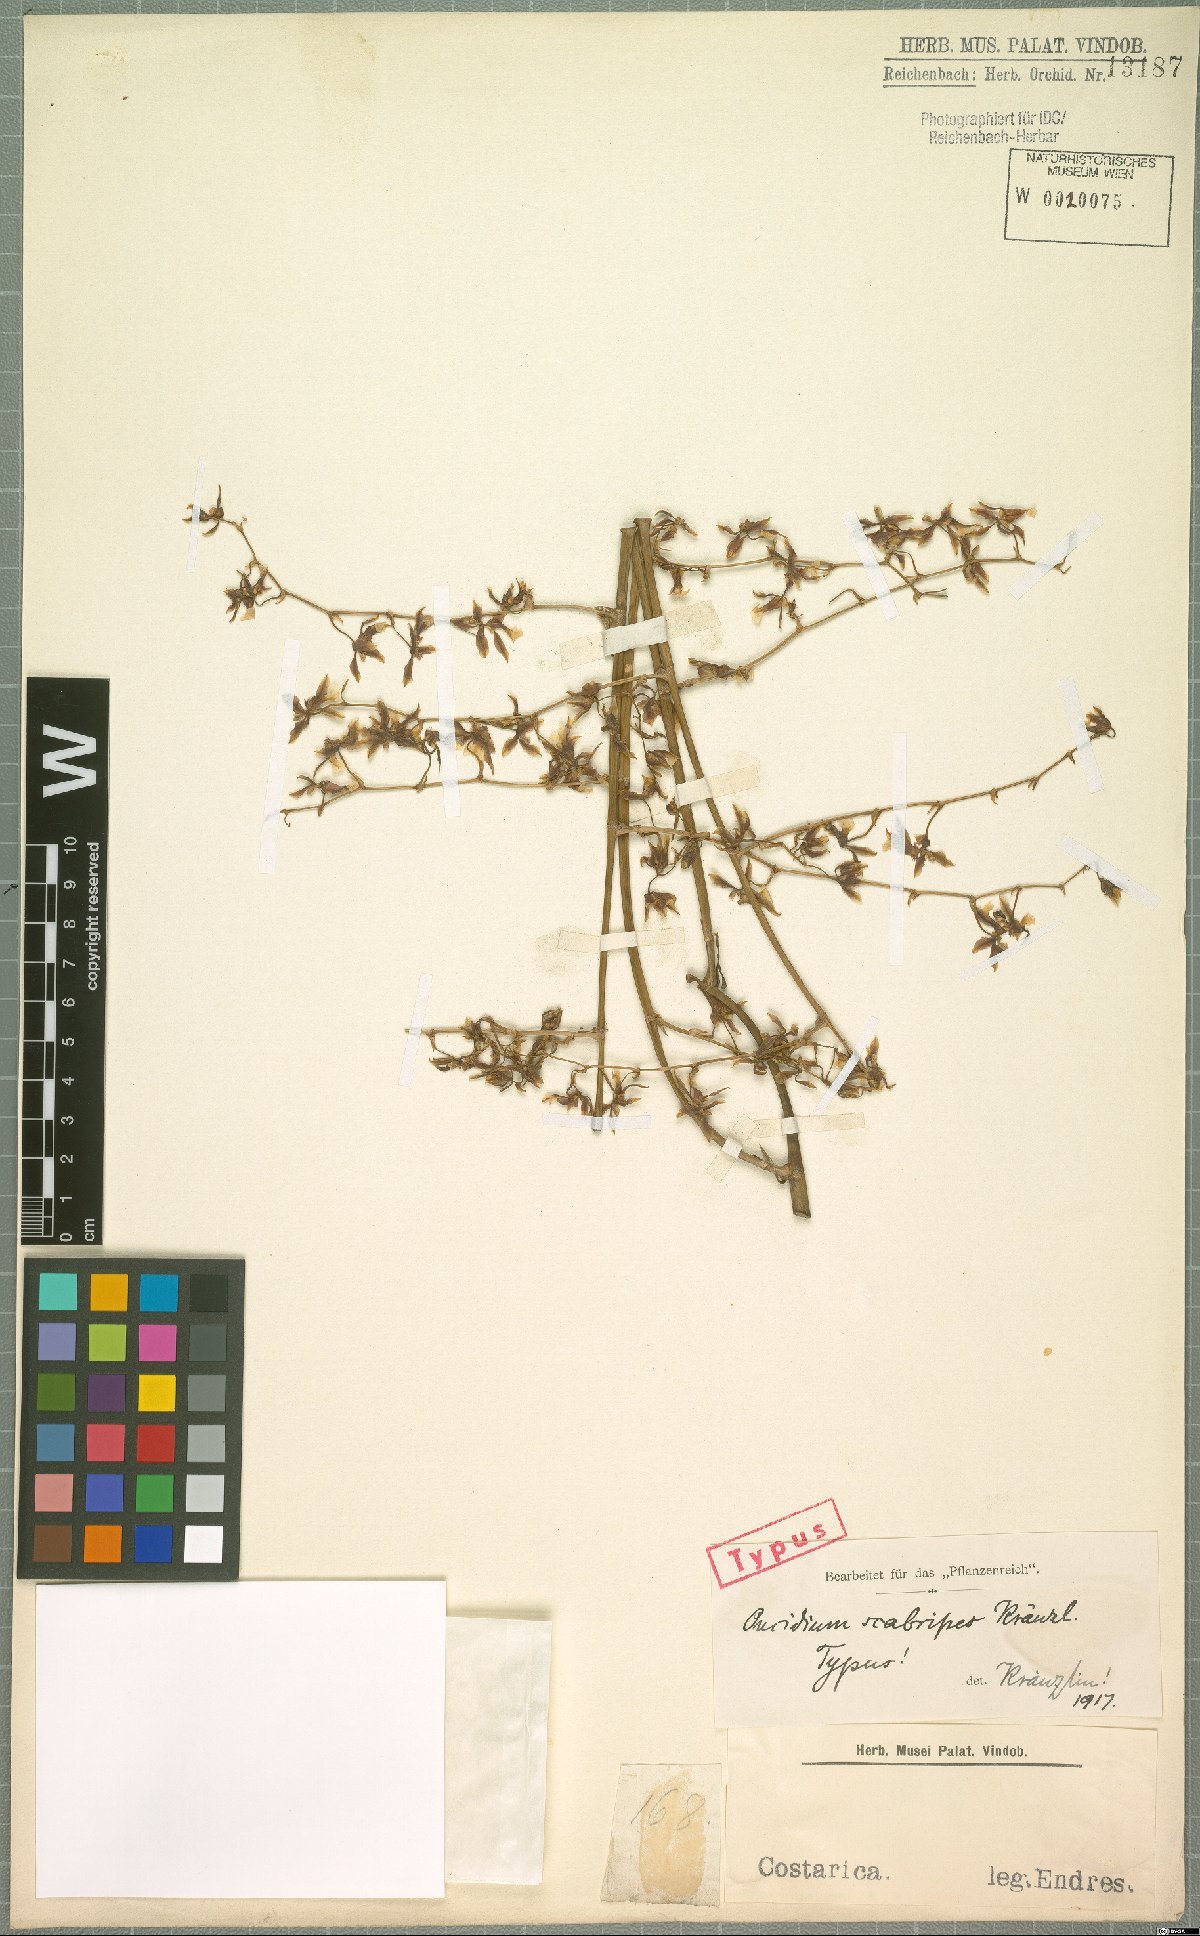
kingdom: Plantae
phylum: Tracheophyta
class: Liliopsida
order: Asparagales
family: Orchidaceae
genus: Oncidium
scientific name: Oncidium polycladium
